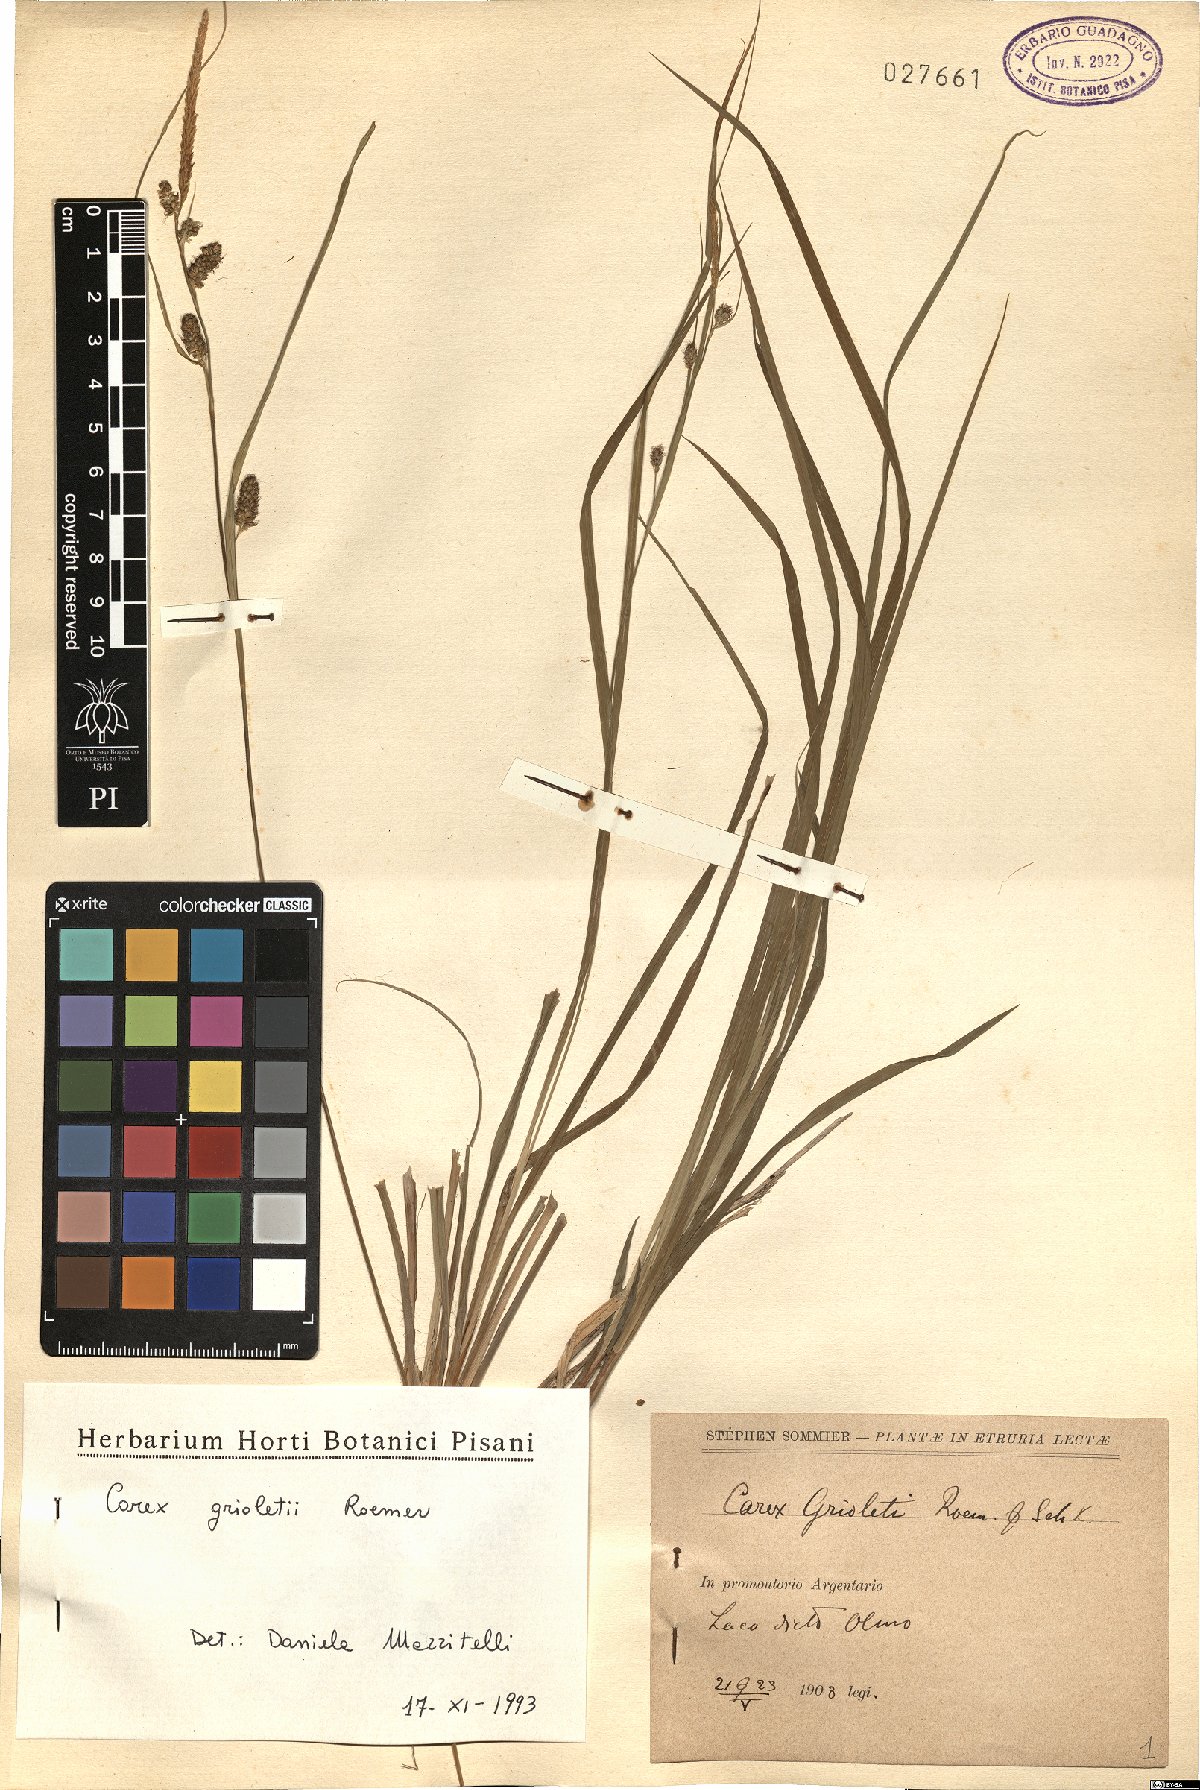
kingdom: Plantae
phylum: Tracheophyta
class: Liliopsida
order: Poales
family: Cyperaceae
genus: Carex
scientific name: Carex grioletii
